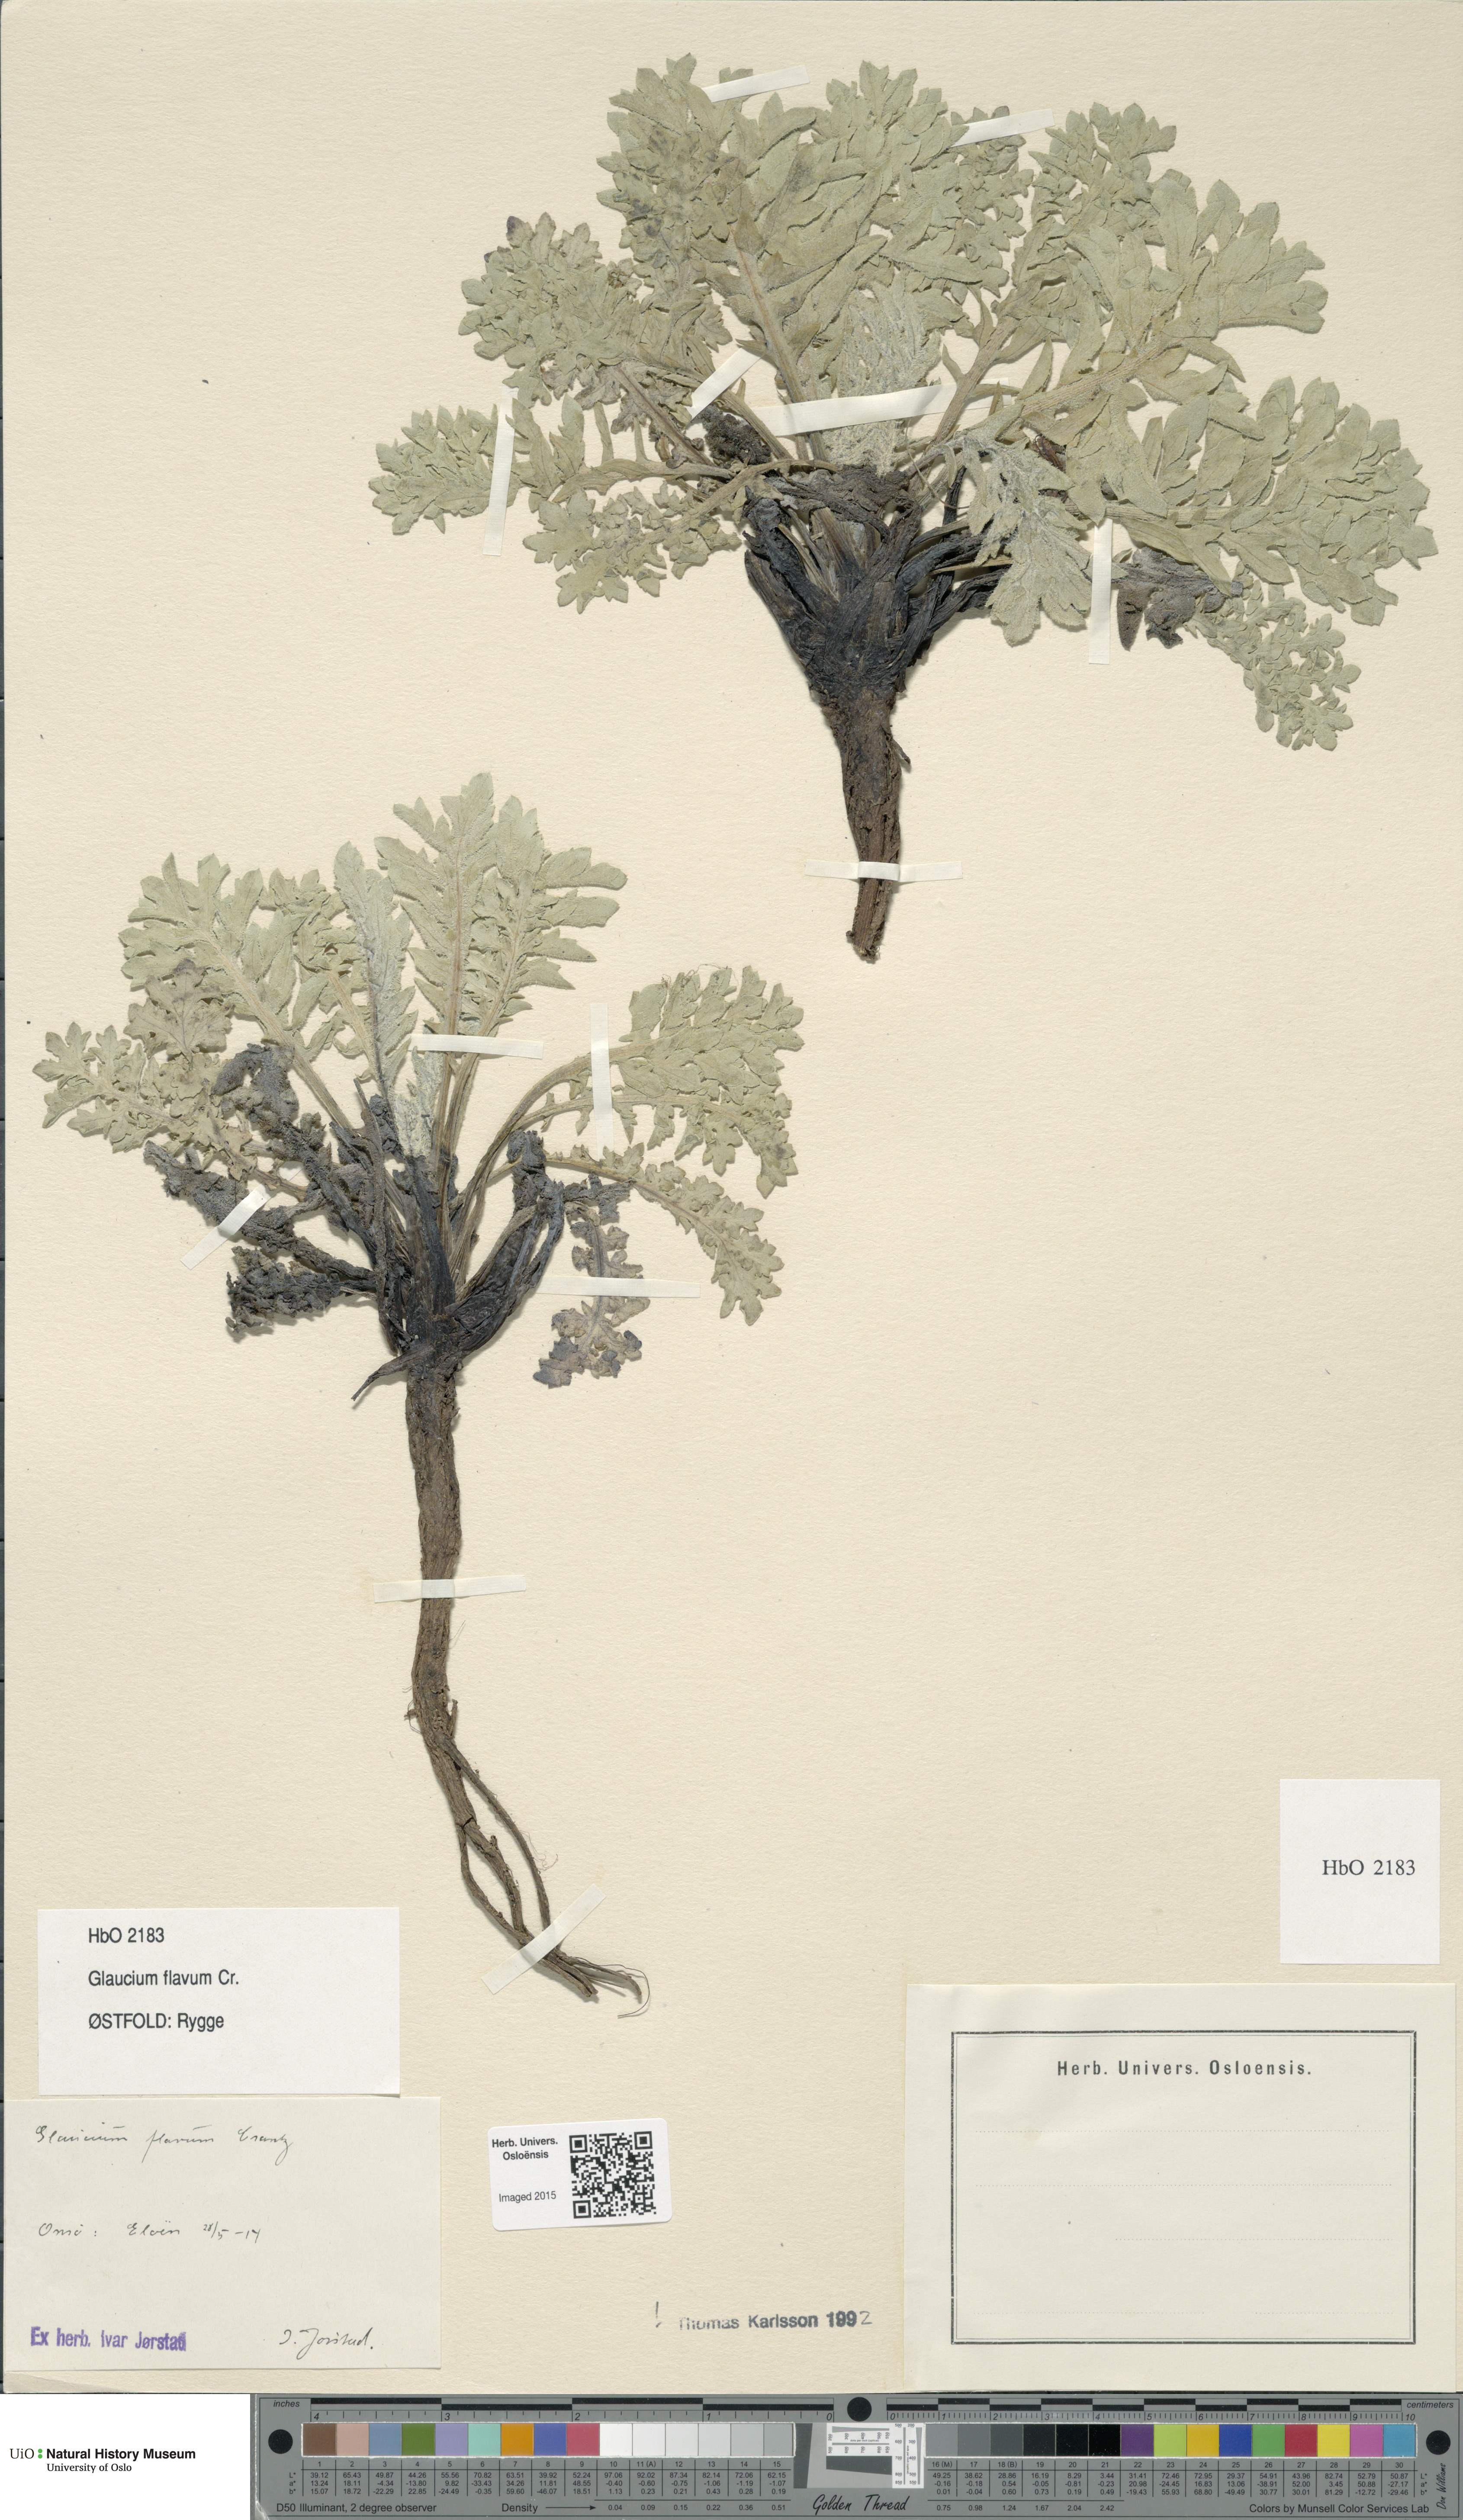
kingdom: Plantae
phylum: Tracheophyta
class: Magnoliopsida
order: Ranunculales
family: Papaveraceae
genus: Glaucium
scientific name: Glaucium flavum
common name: Yellow horned-poppy
